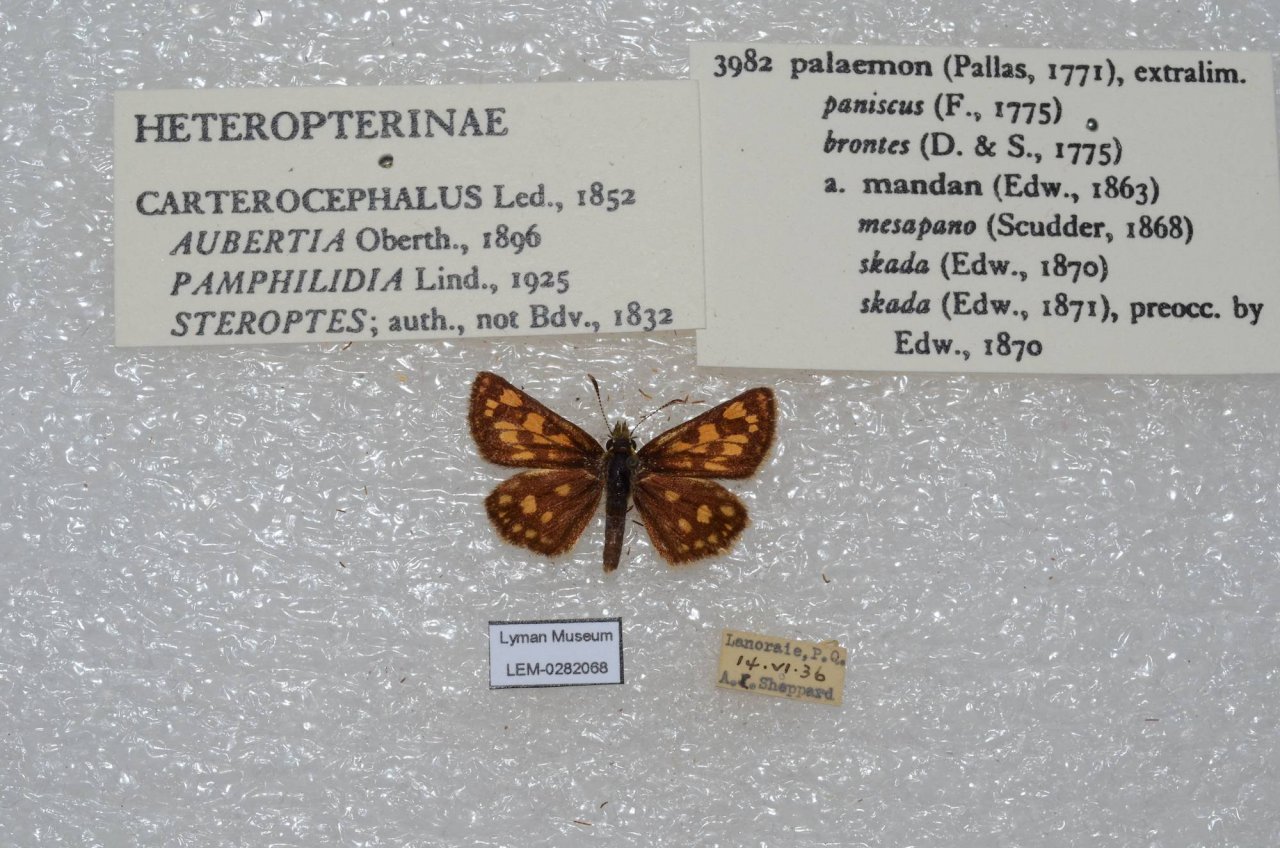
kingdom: Animalia
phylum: Arthropoda
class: Insecta
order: Lepidoptera
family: Hesperiidae
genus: Carterocephalus
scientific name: Carterocephalus palaemon
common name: Chequered Skipper
